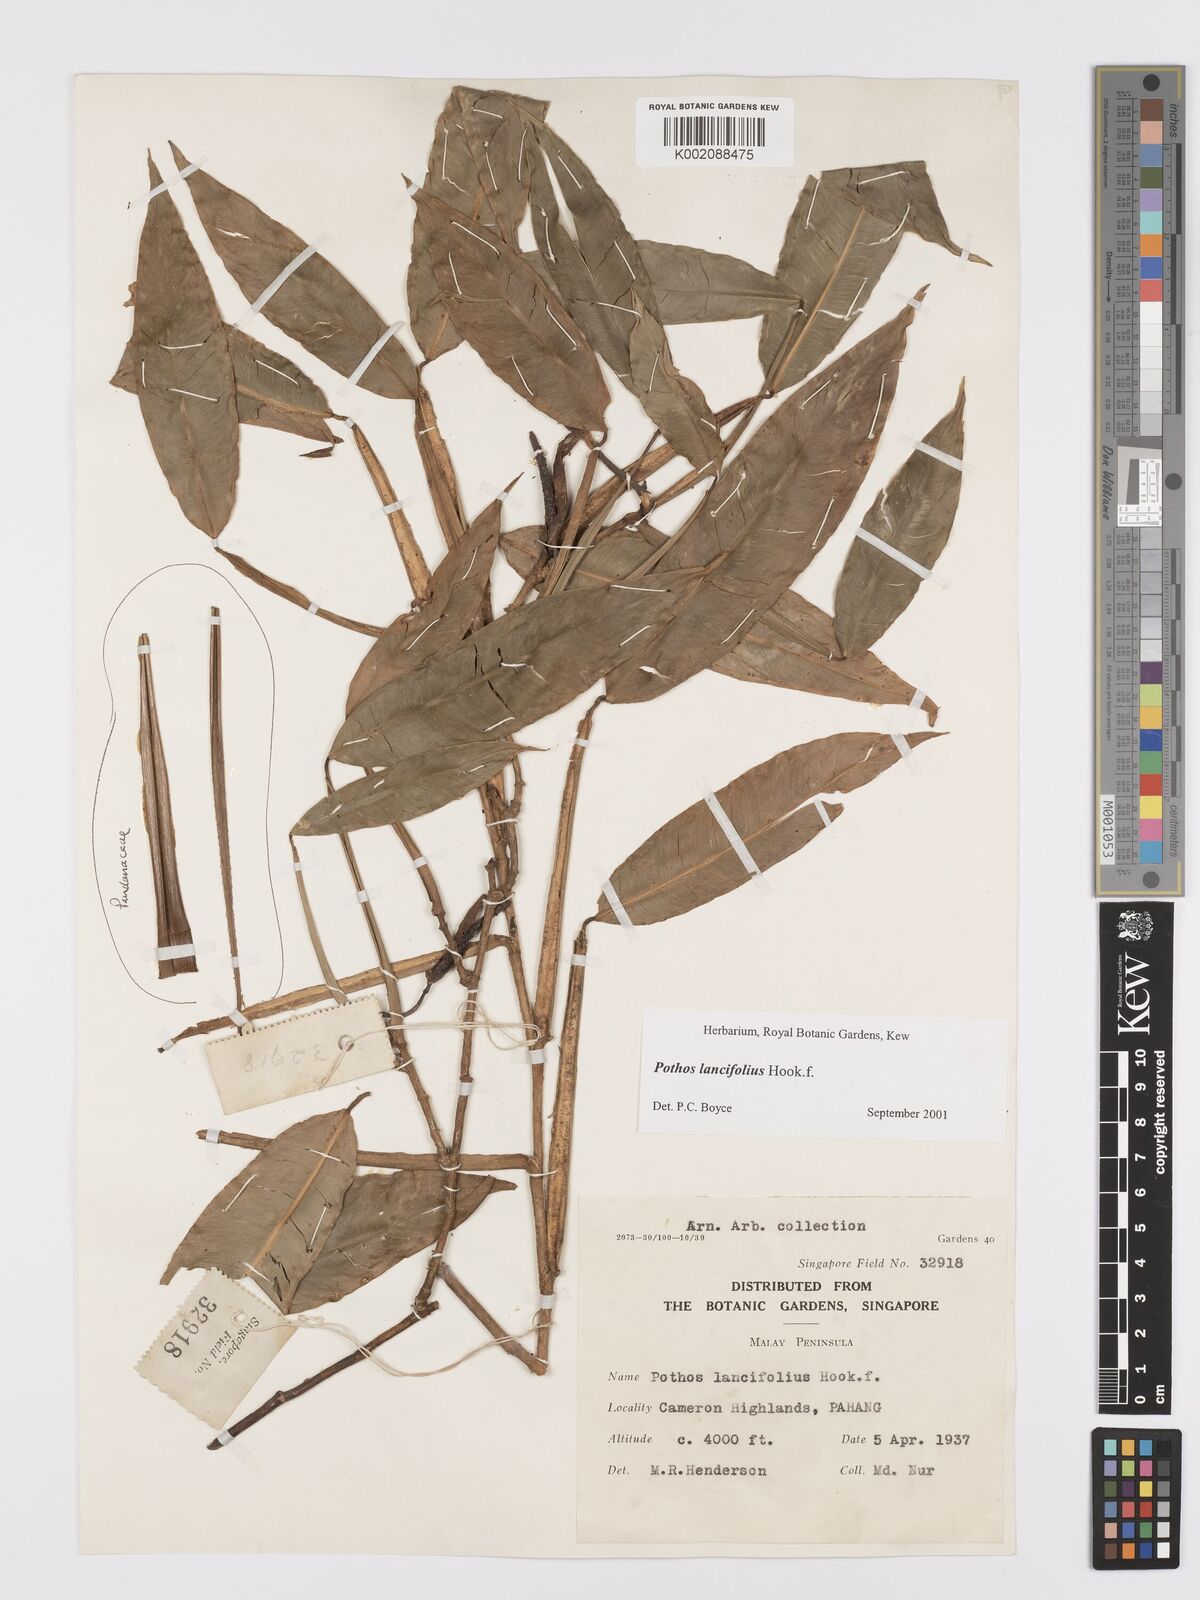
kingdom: Plantae
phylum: Tracheophyta
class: Liliopsida
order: Alismatales
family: Araceae
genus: Pothos
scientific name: Pothos lancifolius
